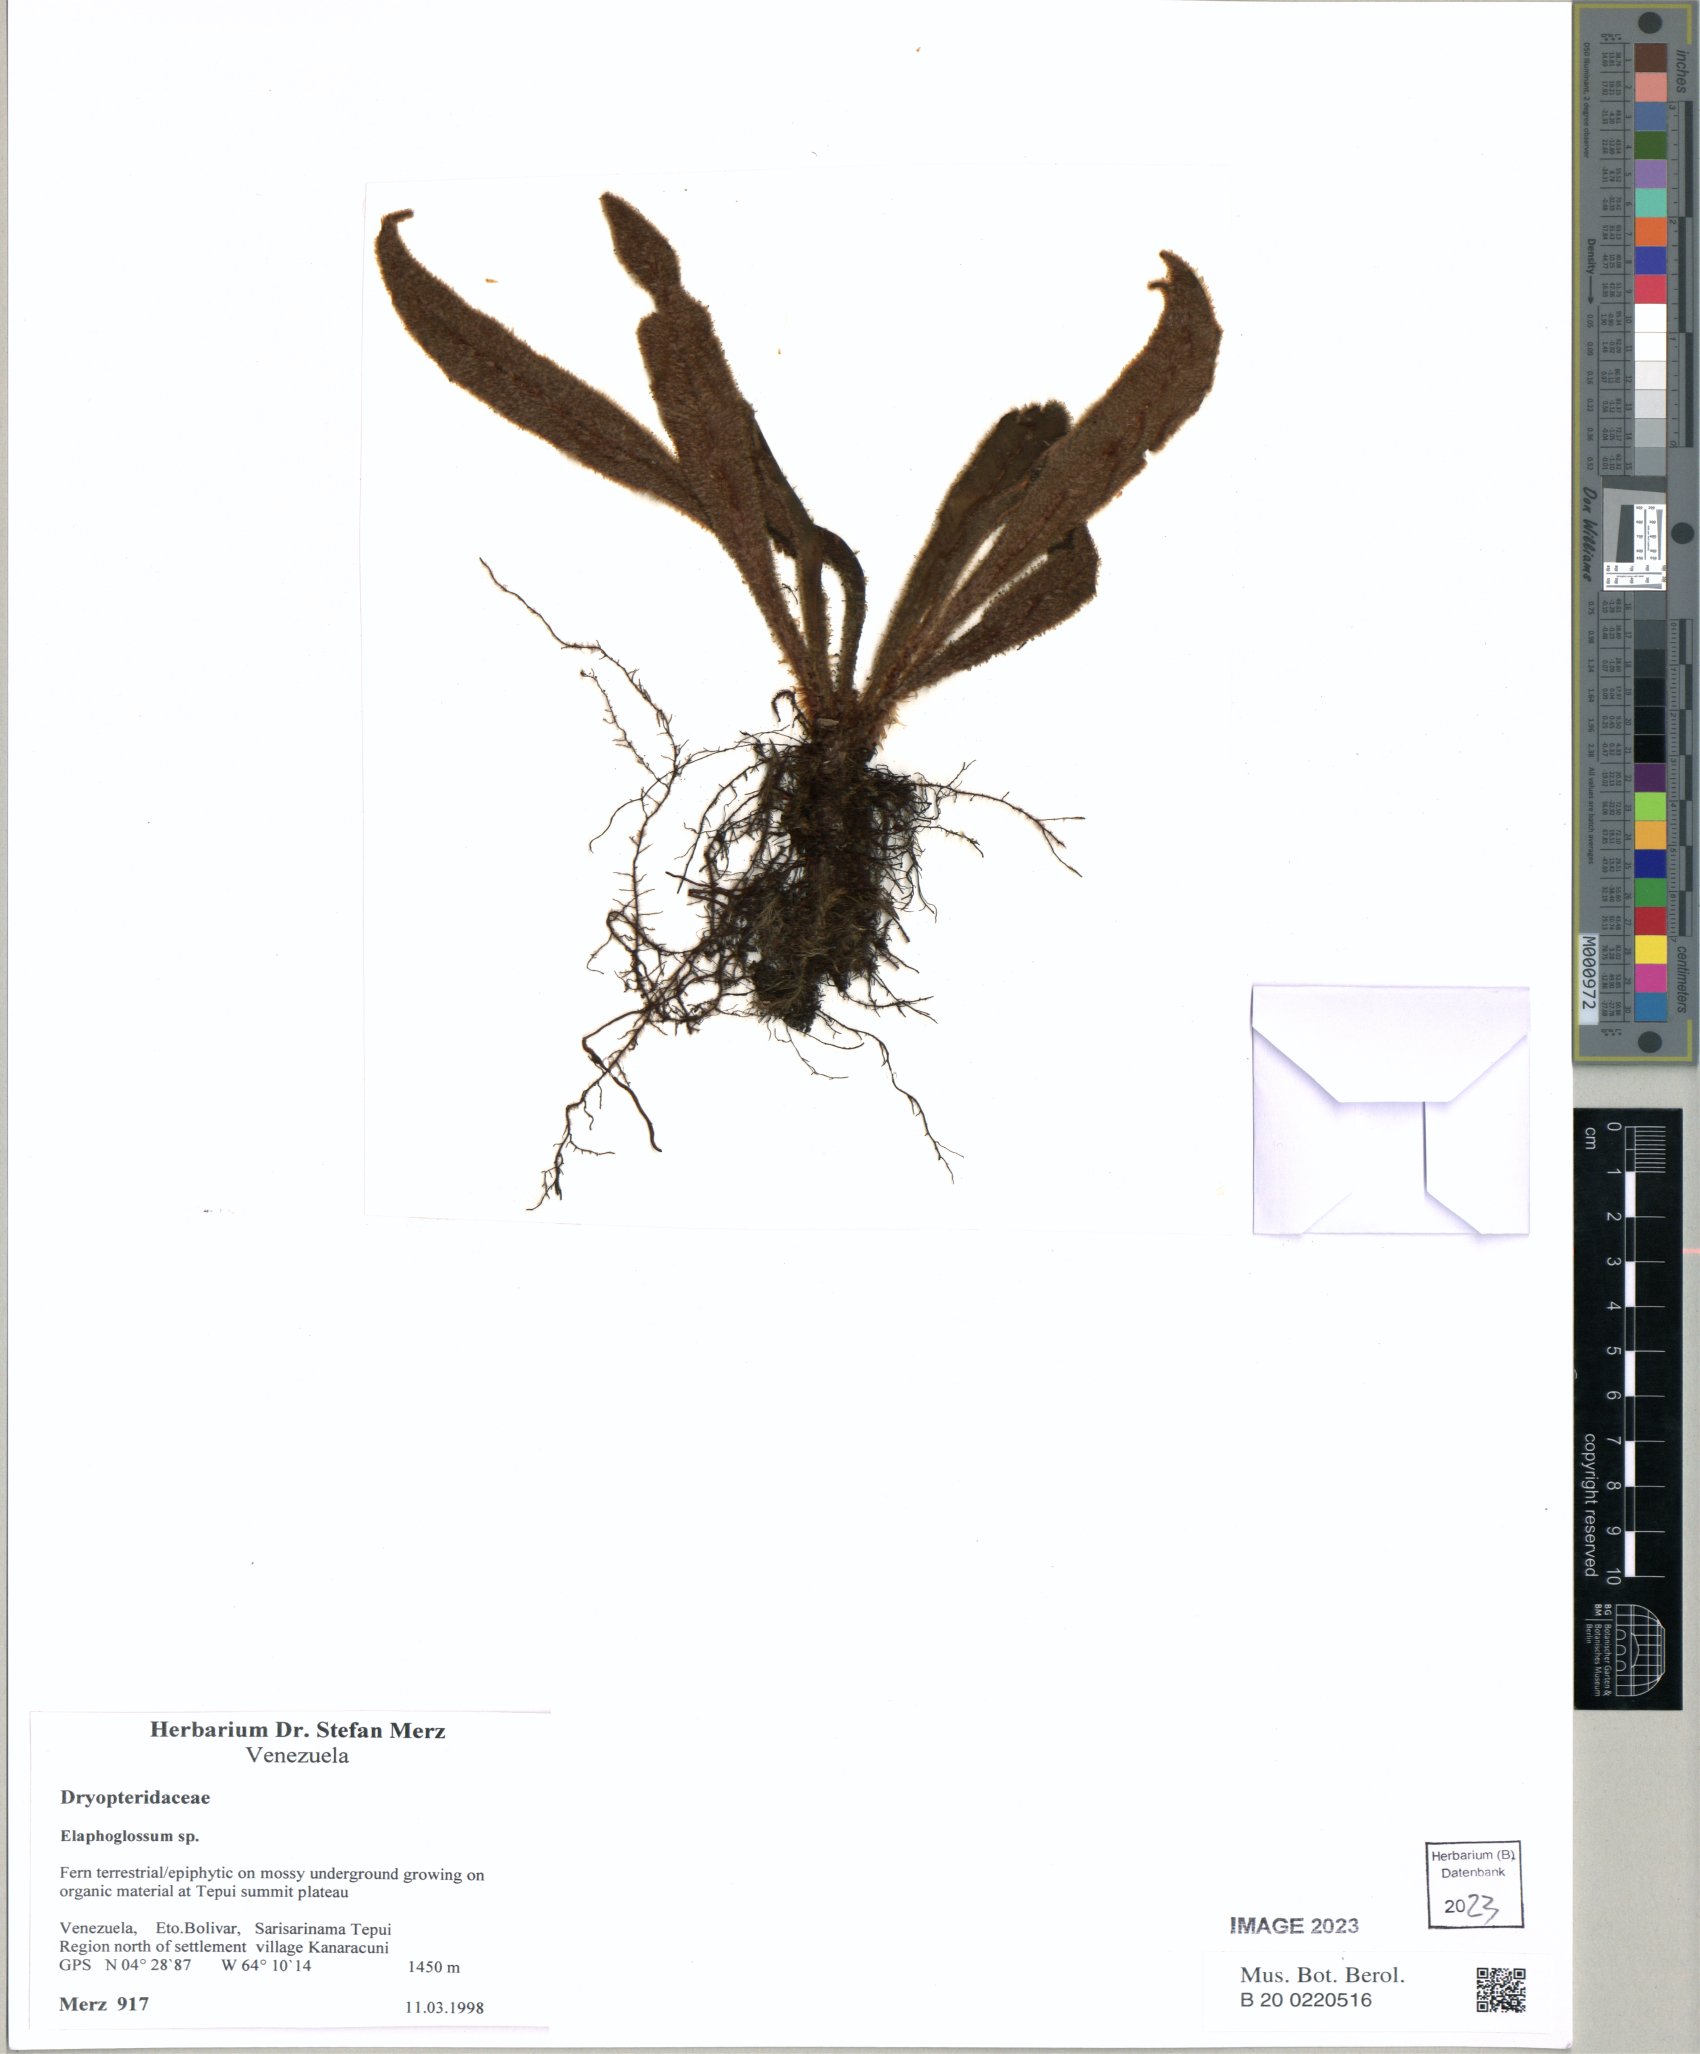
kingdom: Plantae
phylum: Tracheophyta
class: Polypodiopsida
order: Polypodiales
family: Dryopteridaceae
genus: Elaphoglossum
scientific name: Elaphoglossum
